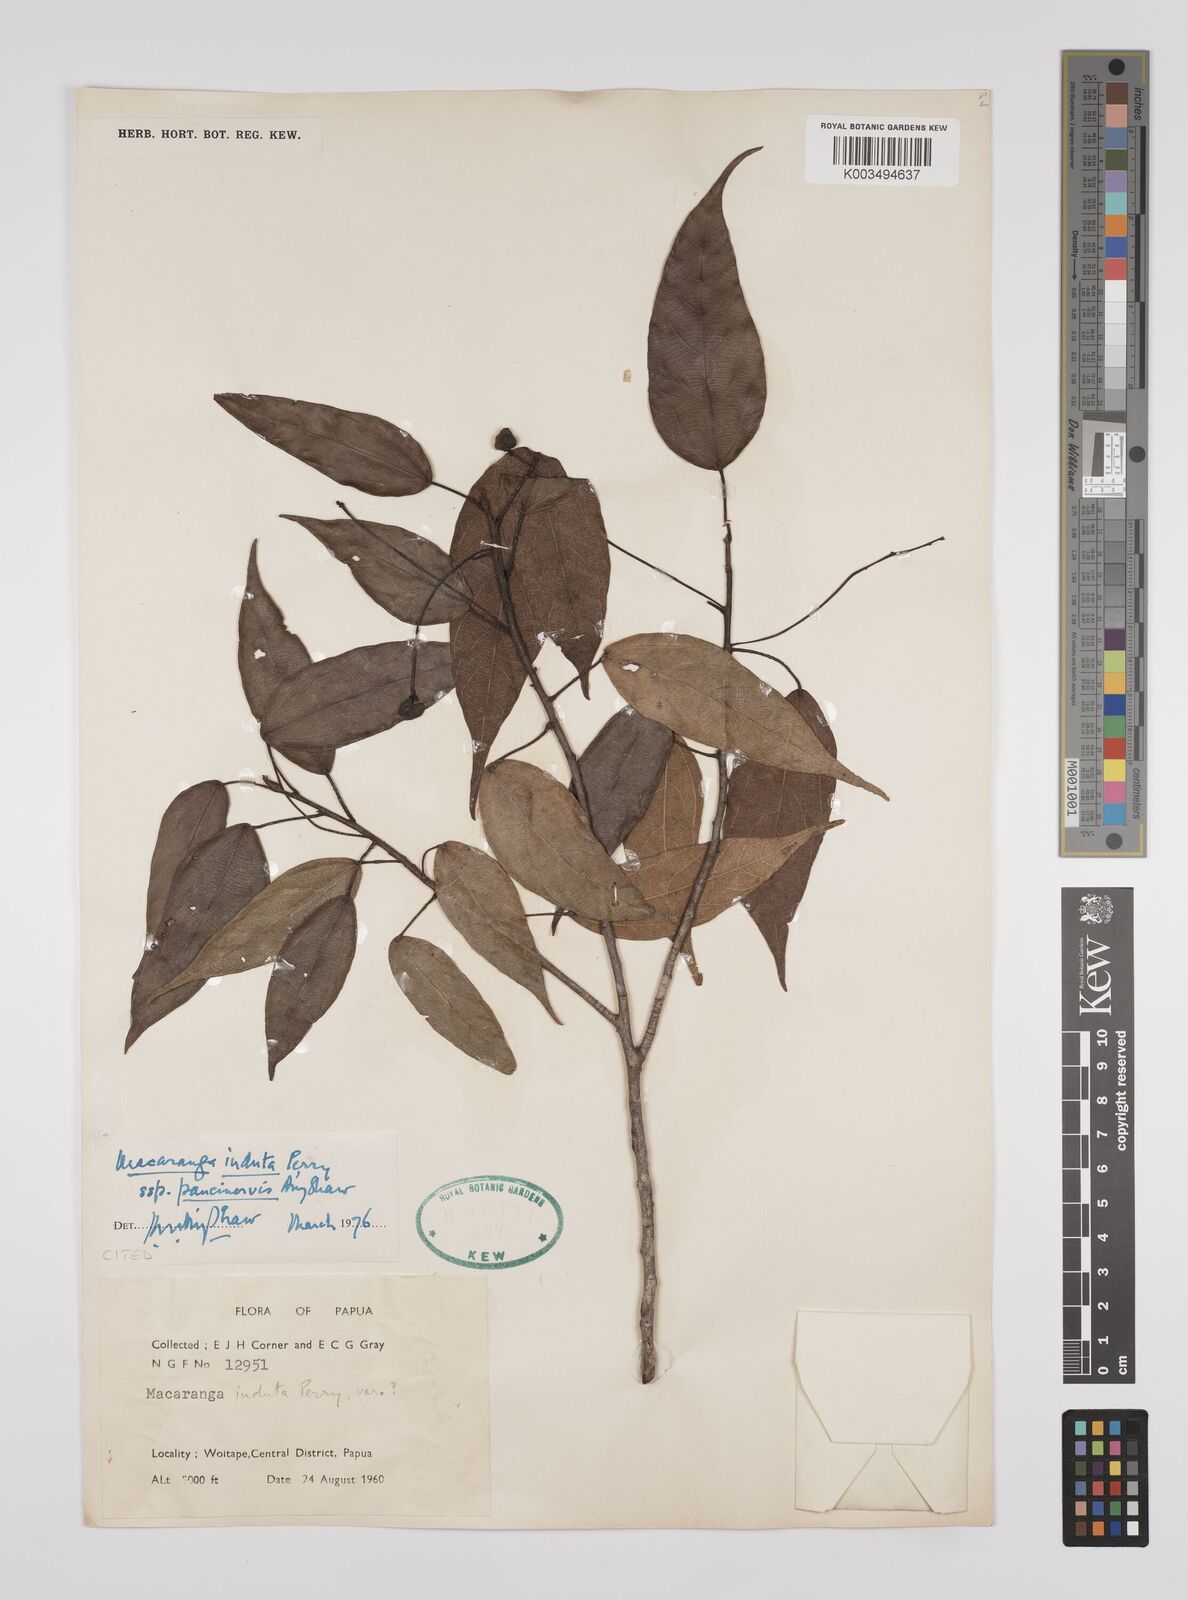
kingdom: Plantae
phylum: Tracheophyta
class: Magnoliopsida
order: Malpighiales
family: Euphorbiaceae
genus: Macaranga
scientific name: Macaranga induta
